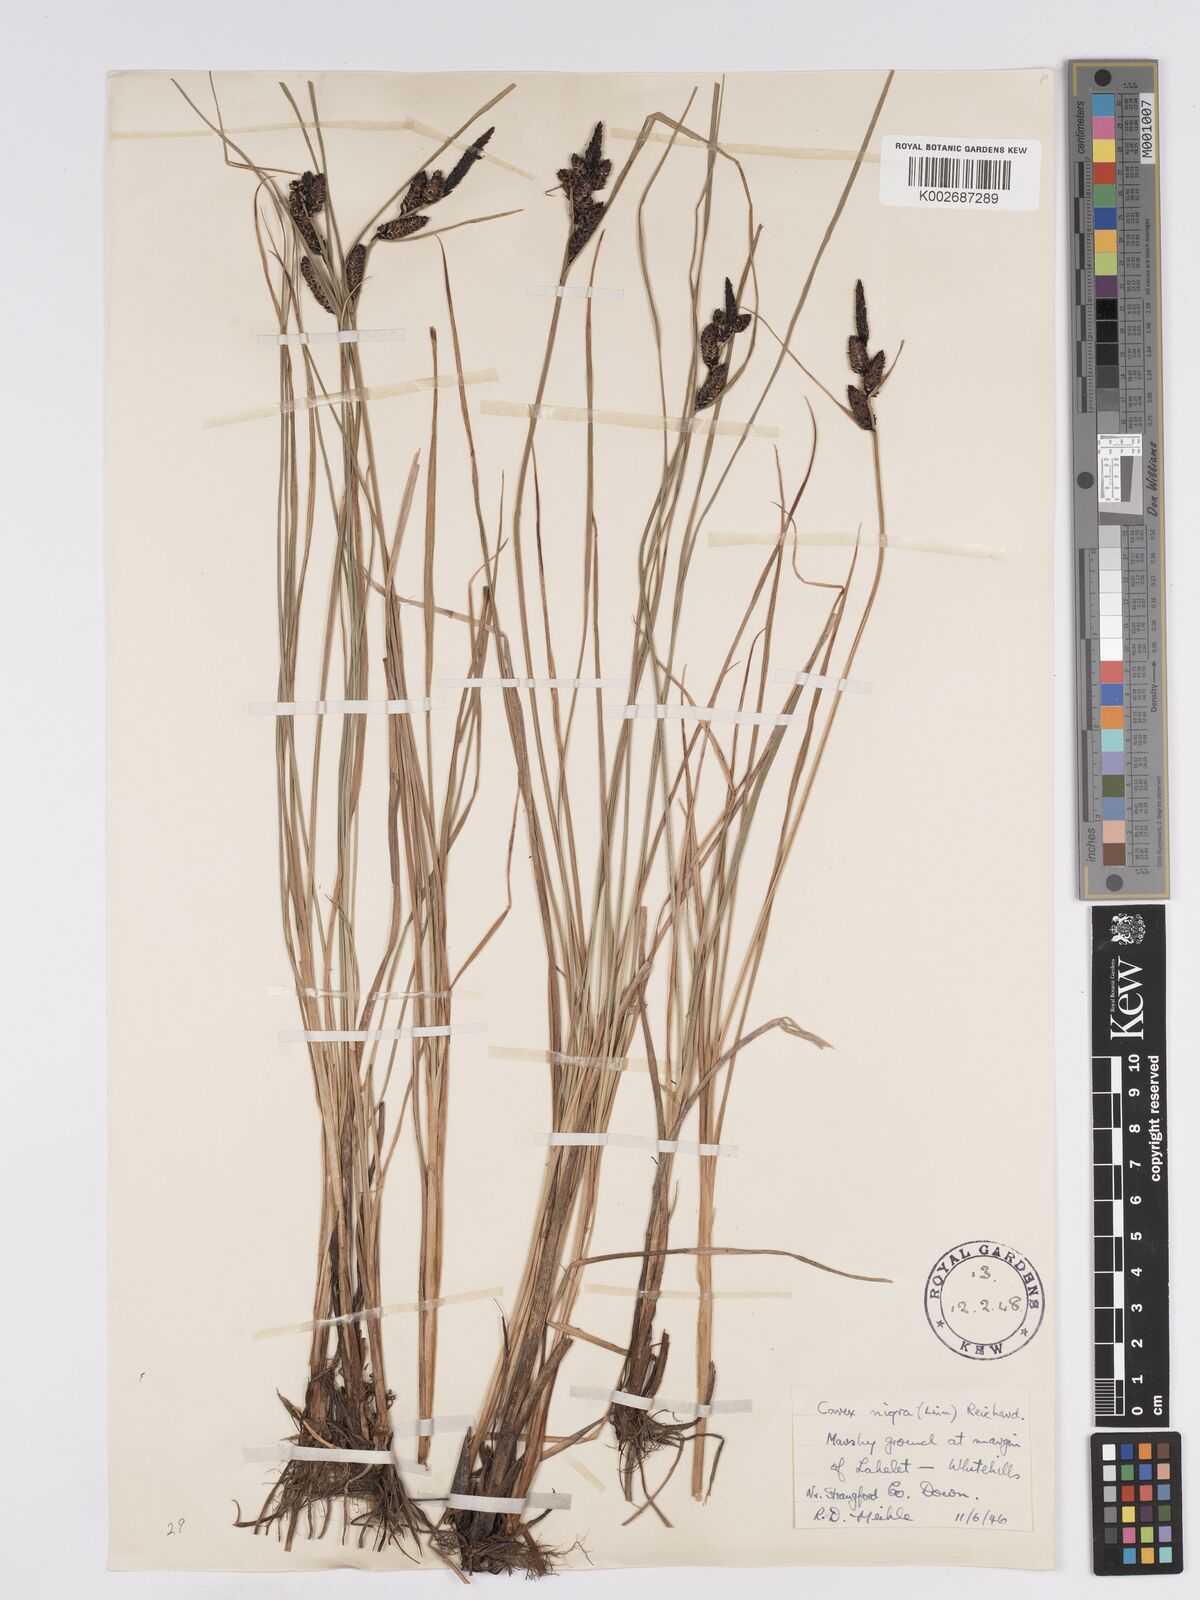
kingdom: Plantae
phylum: Tracheophyta
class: Liliopsida
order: Poales
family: Cyperaceae
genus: Carex
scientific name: Carex nigra
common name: Common sedge
